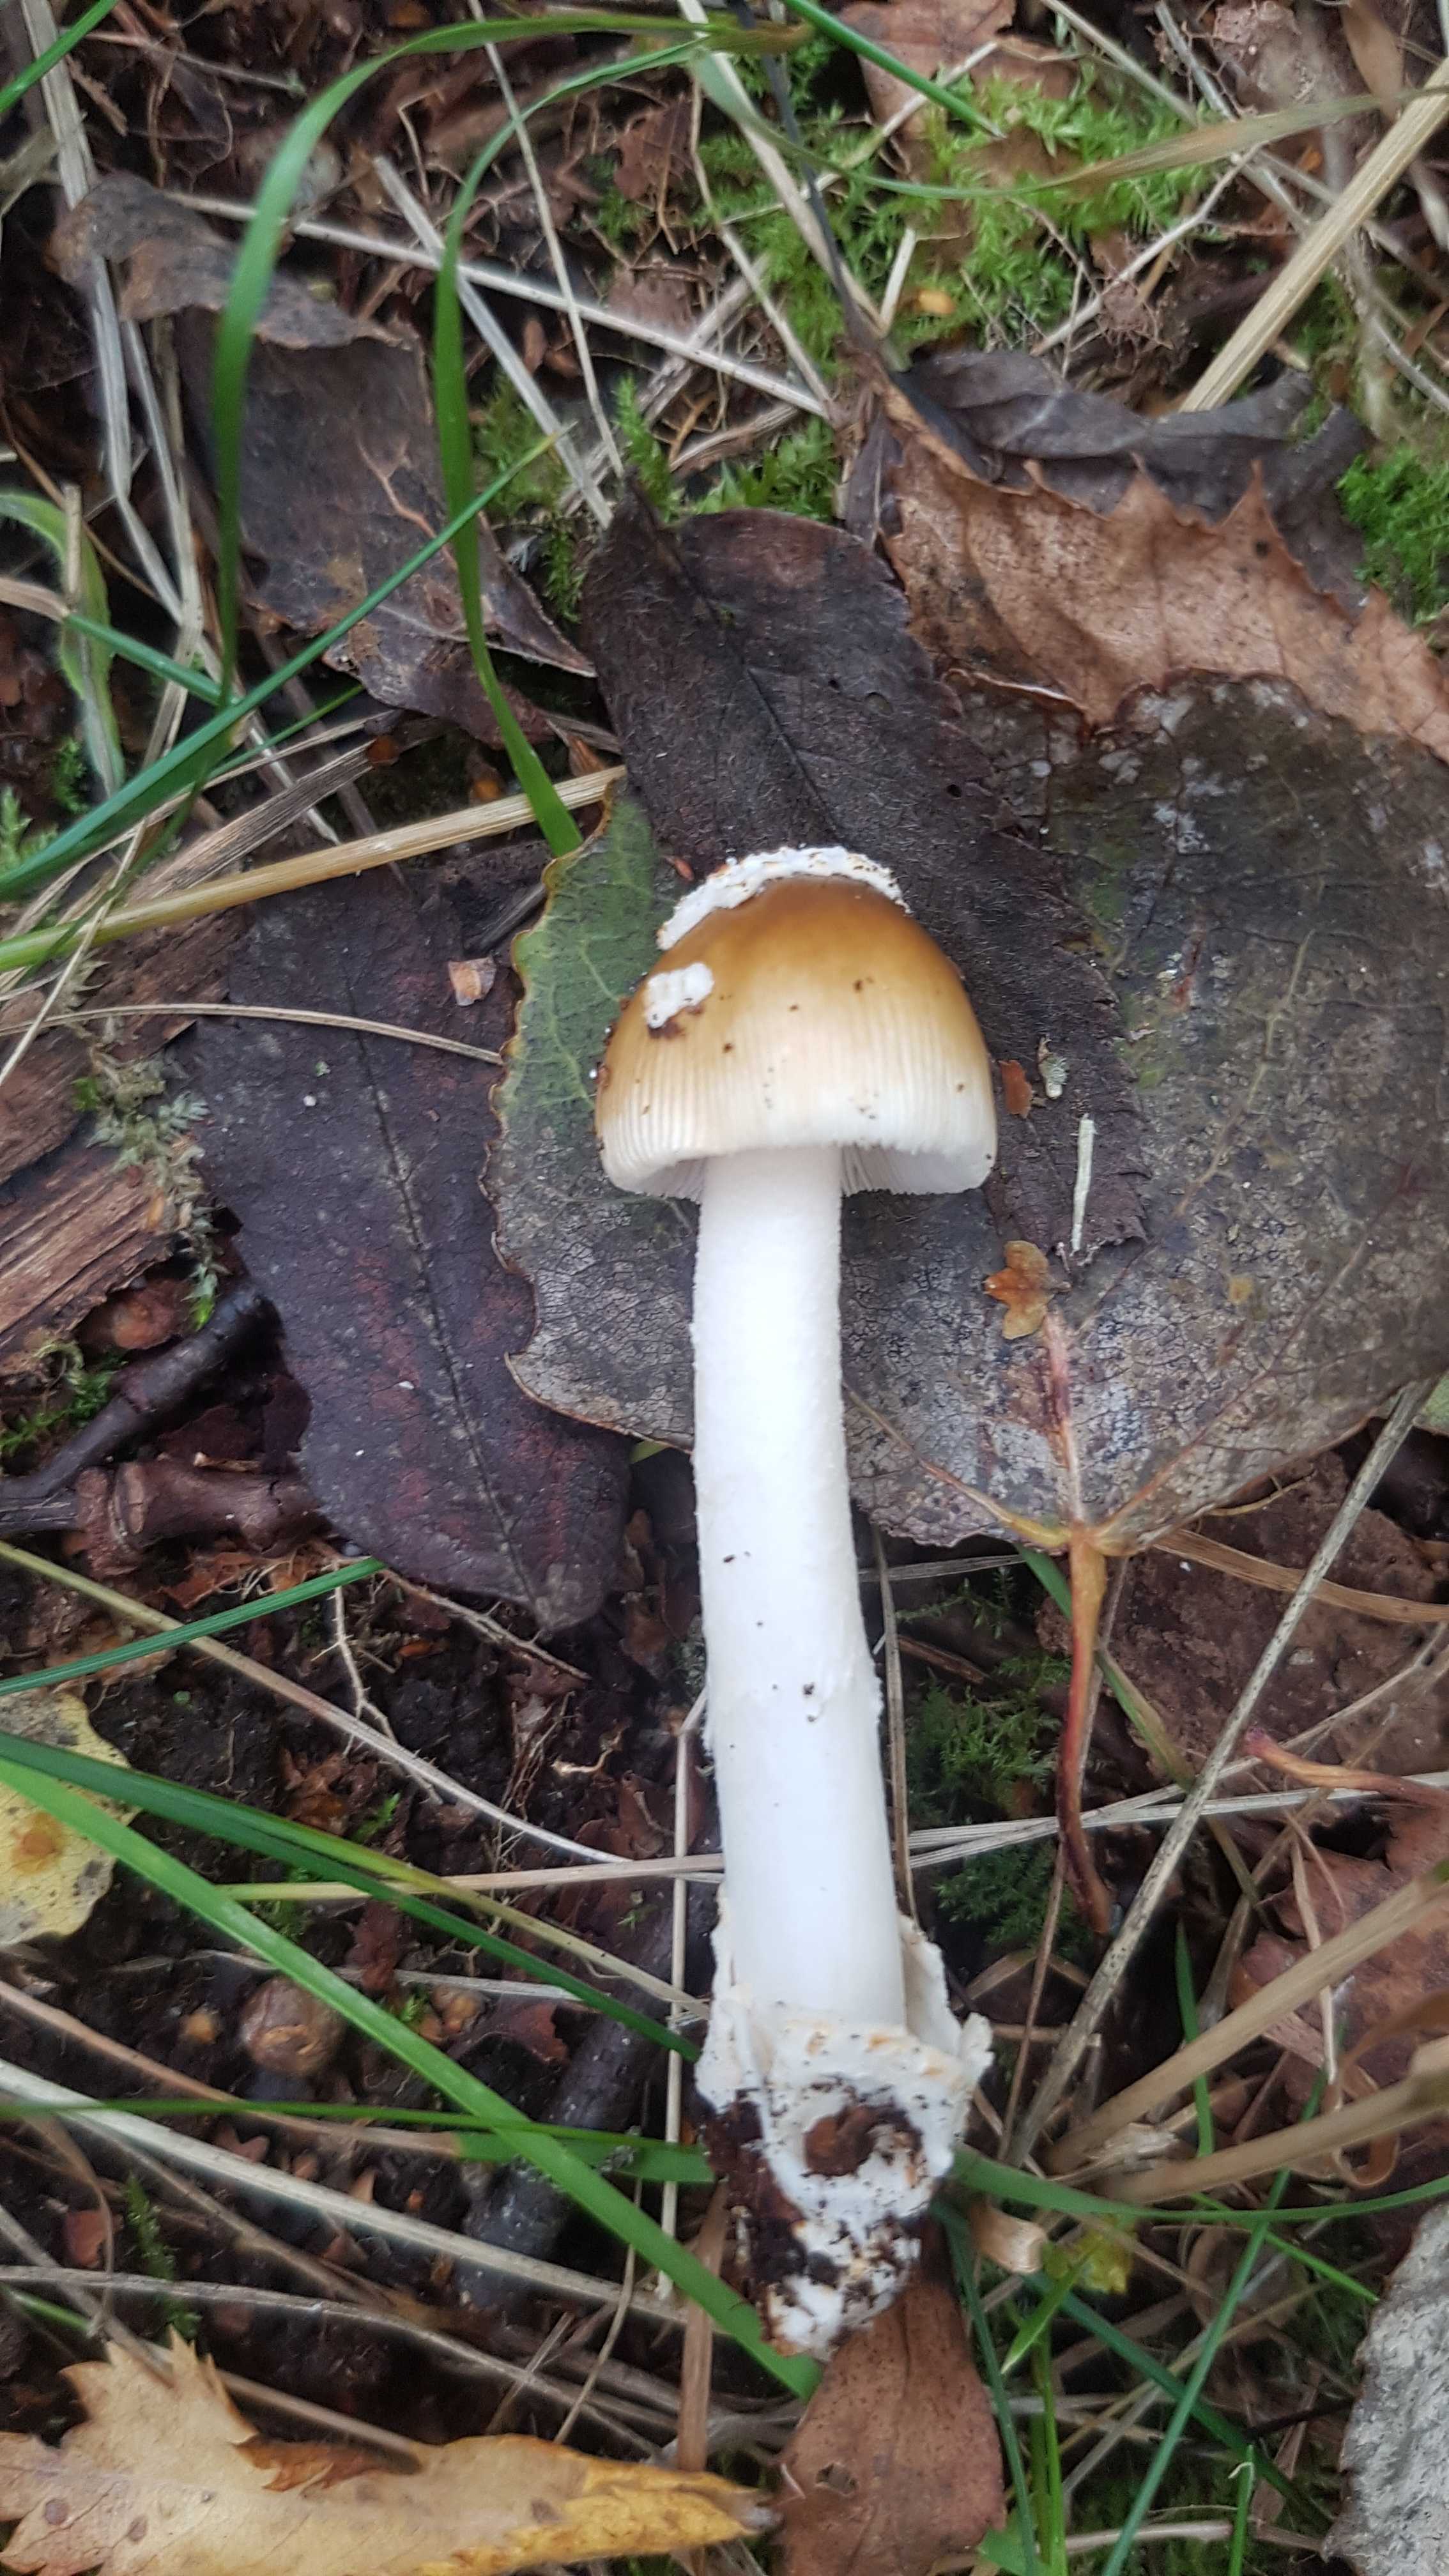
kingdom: Fungi
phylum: Basidiomycota
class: Agaricomycetes
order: Agaricales
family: Amanitaceae
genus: Amanita
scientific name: Amanita fulva
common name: brun kam-fluesvamp
